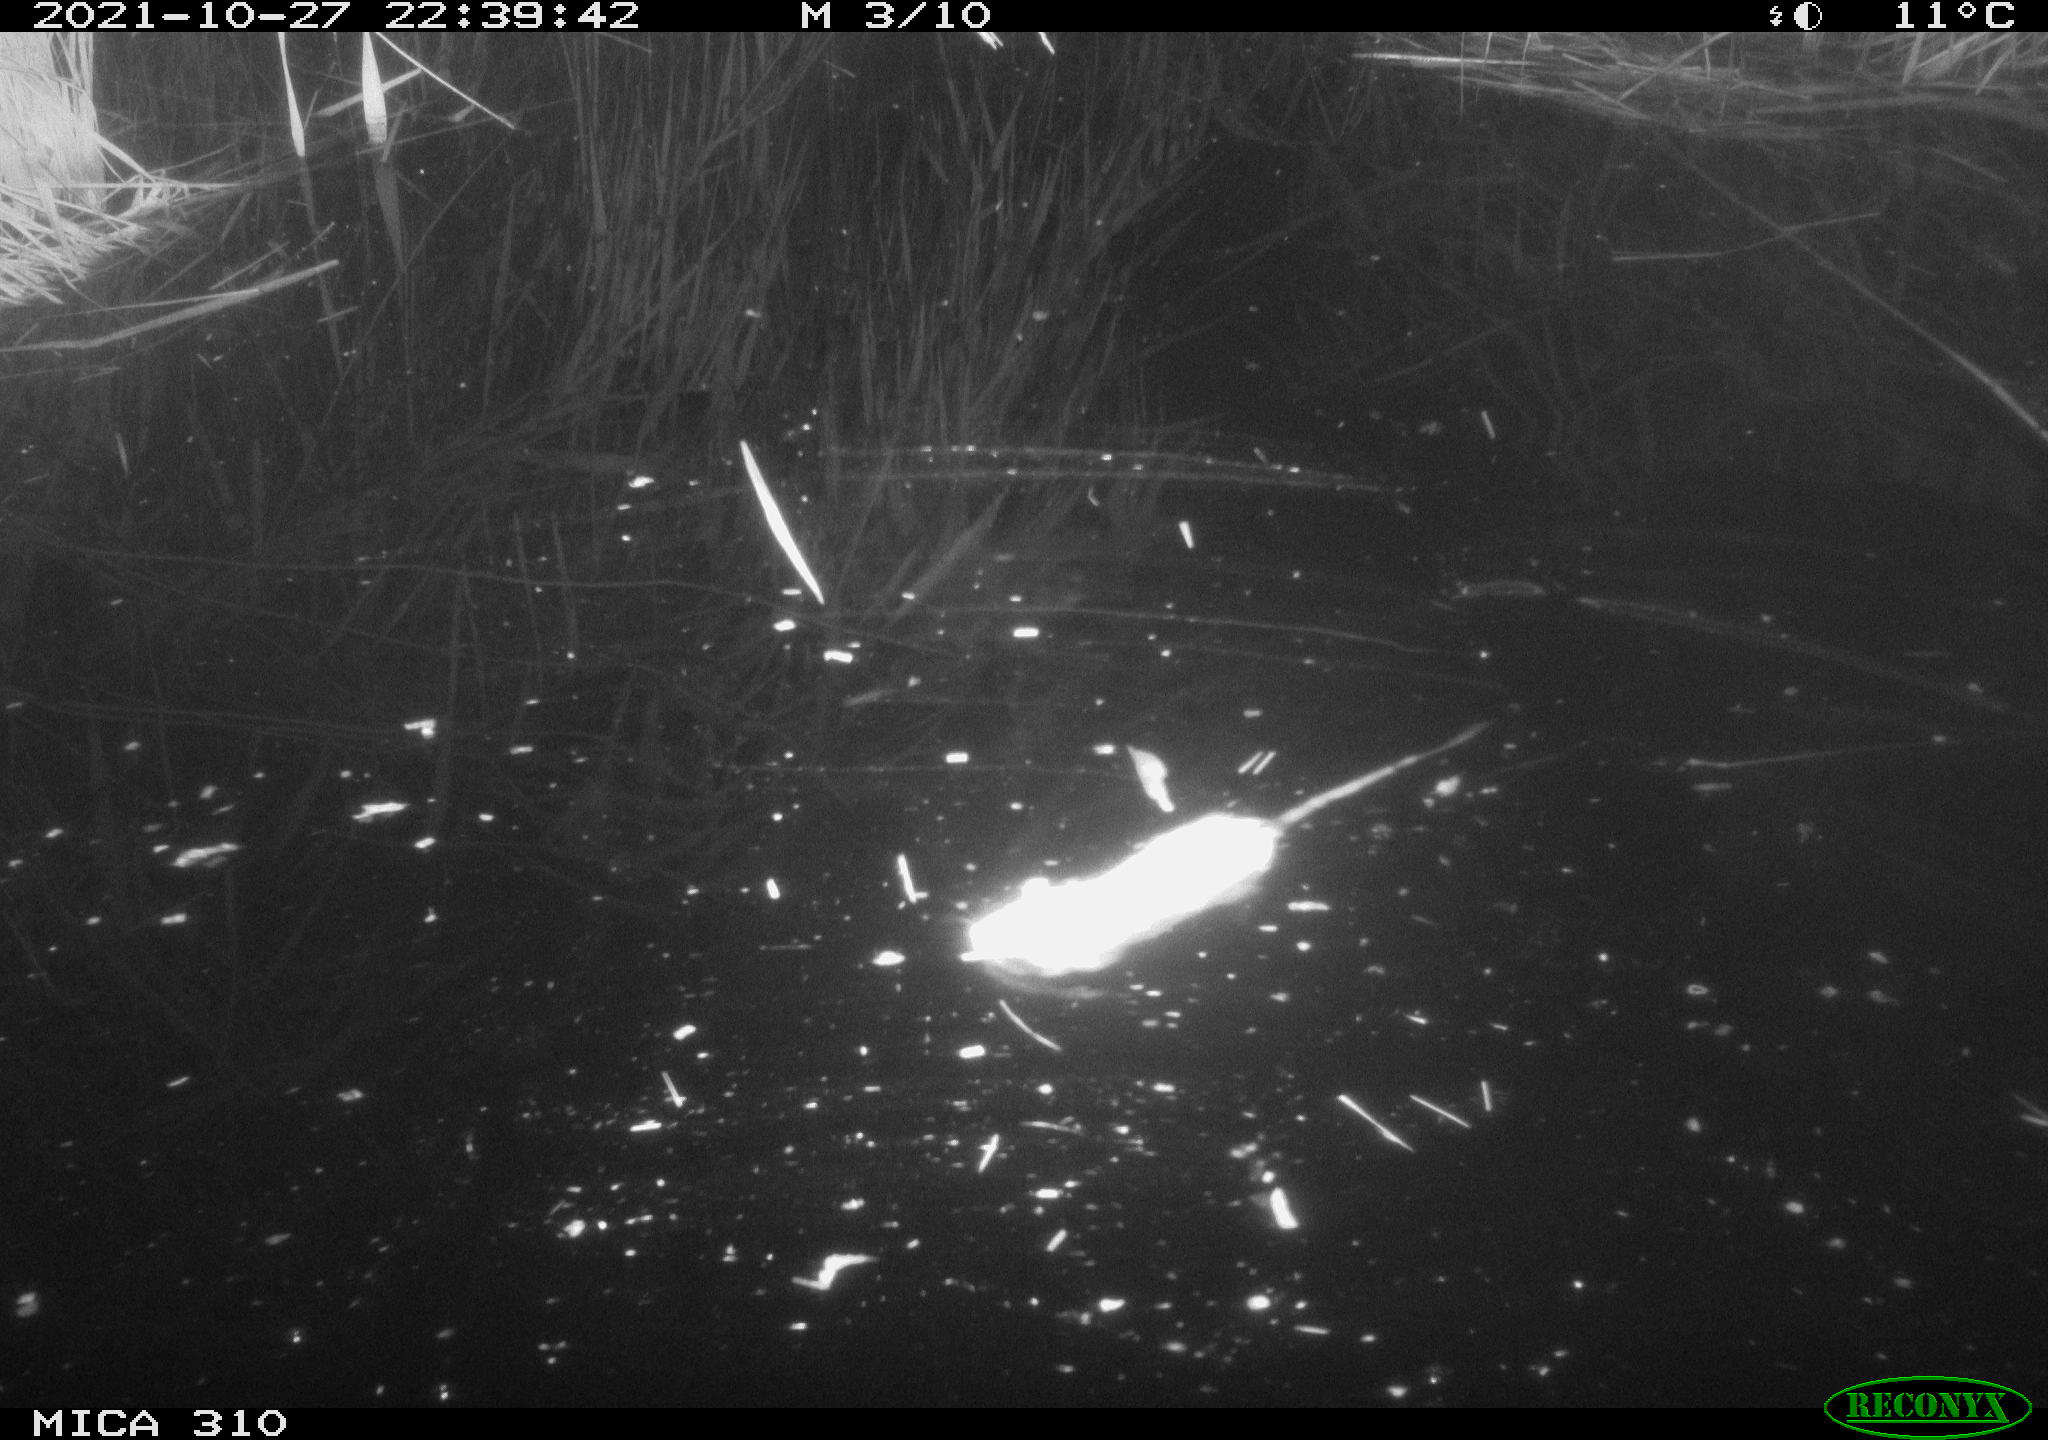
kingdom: Animalia
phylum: Chordata
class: Mammalia
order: Rodentia
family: Muridae
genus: Rattus
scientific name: Rattus norvegicus
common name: Brown rat
